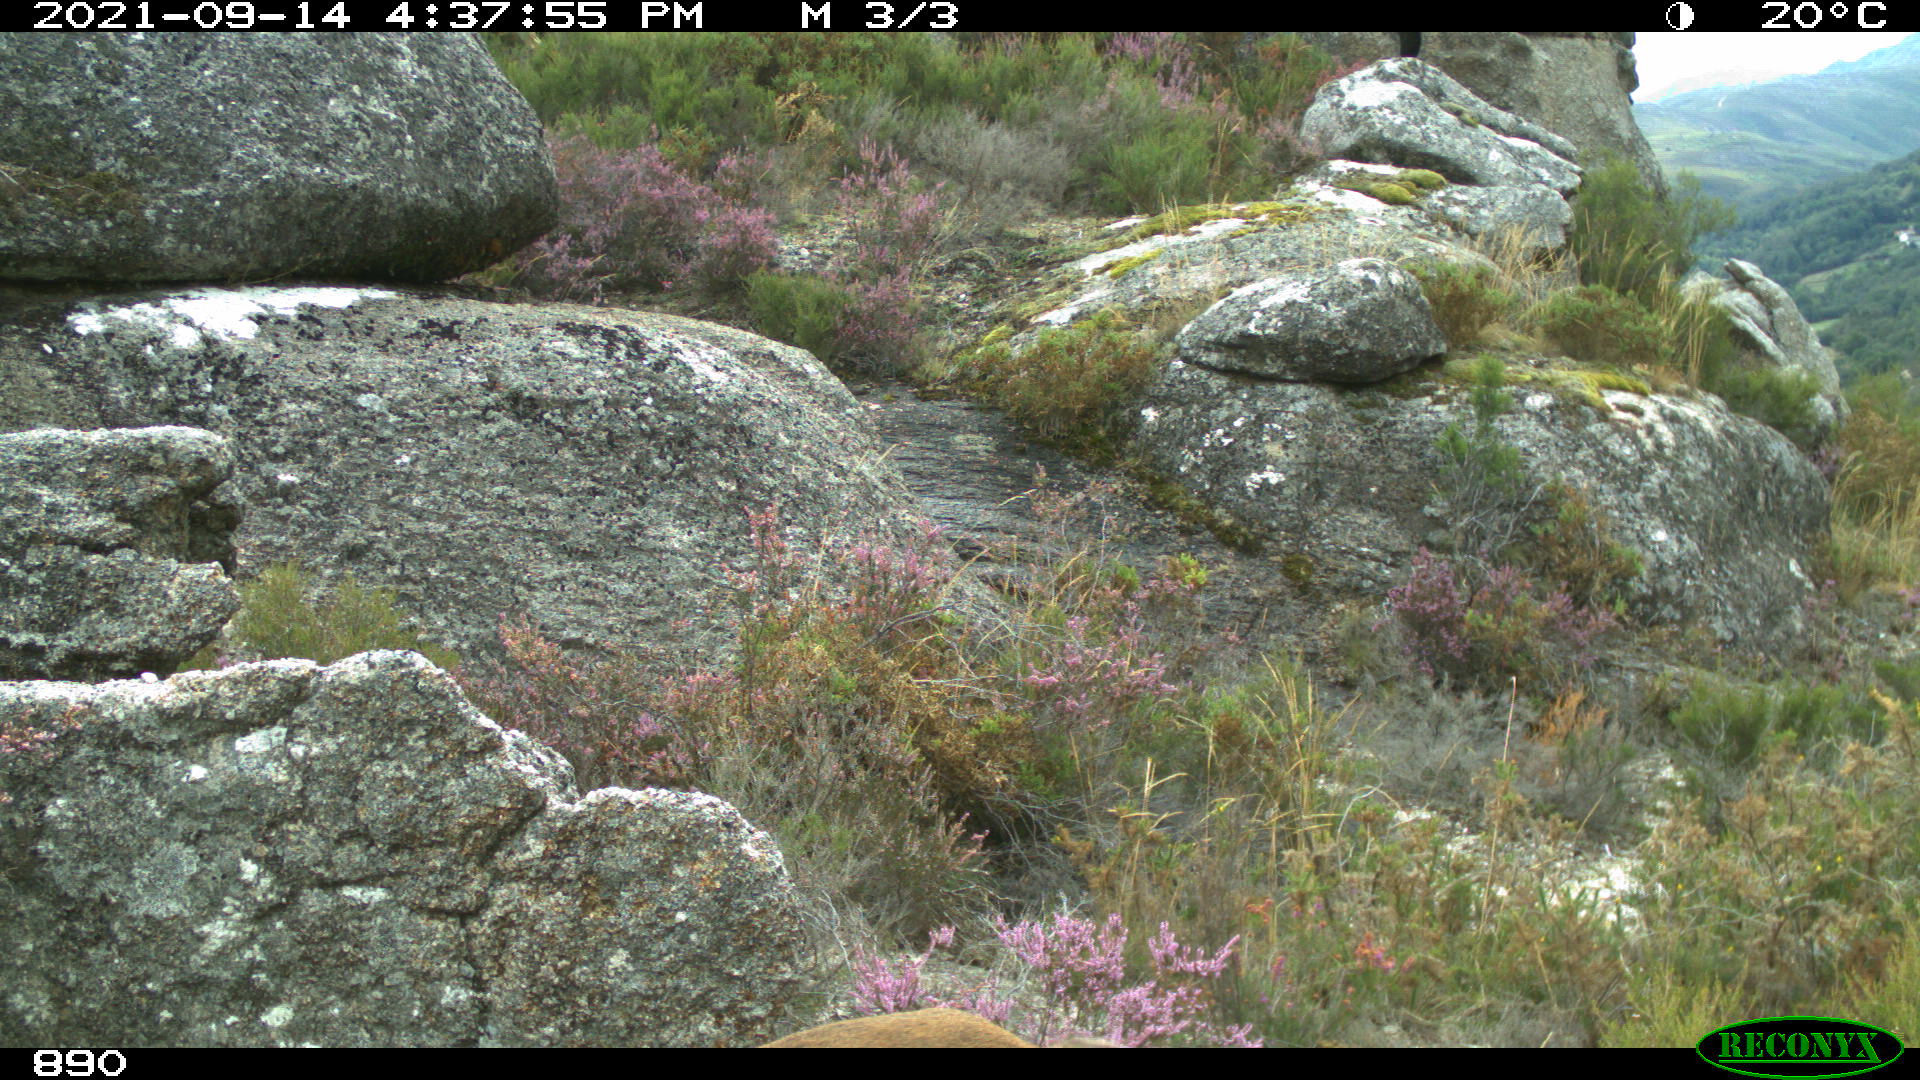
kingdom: Animalia
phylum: Chordata
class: Mammalia
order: Artiodactyla
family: Bovidae
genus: Capra
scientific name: Capra pyrenaica
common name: Spanish ibex
